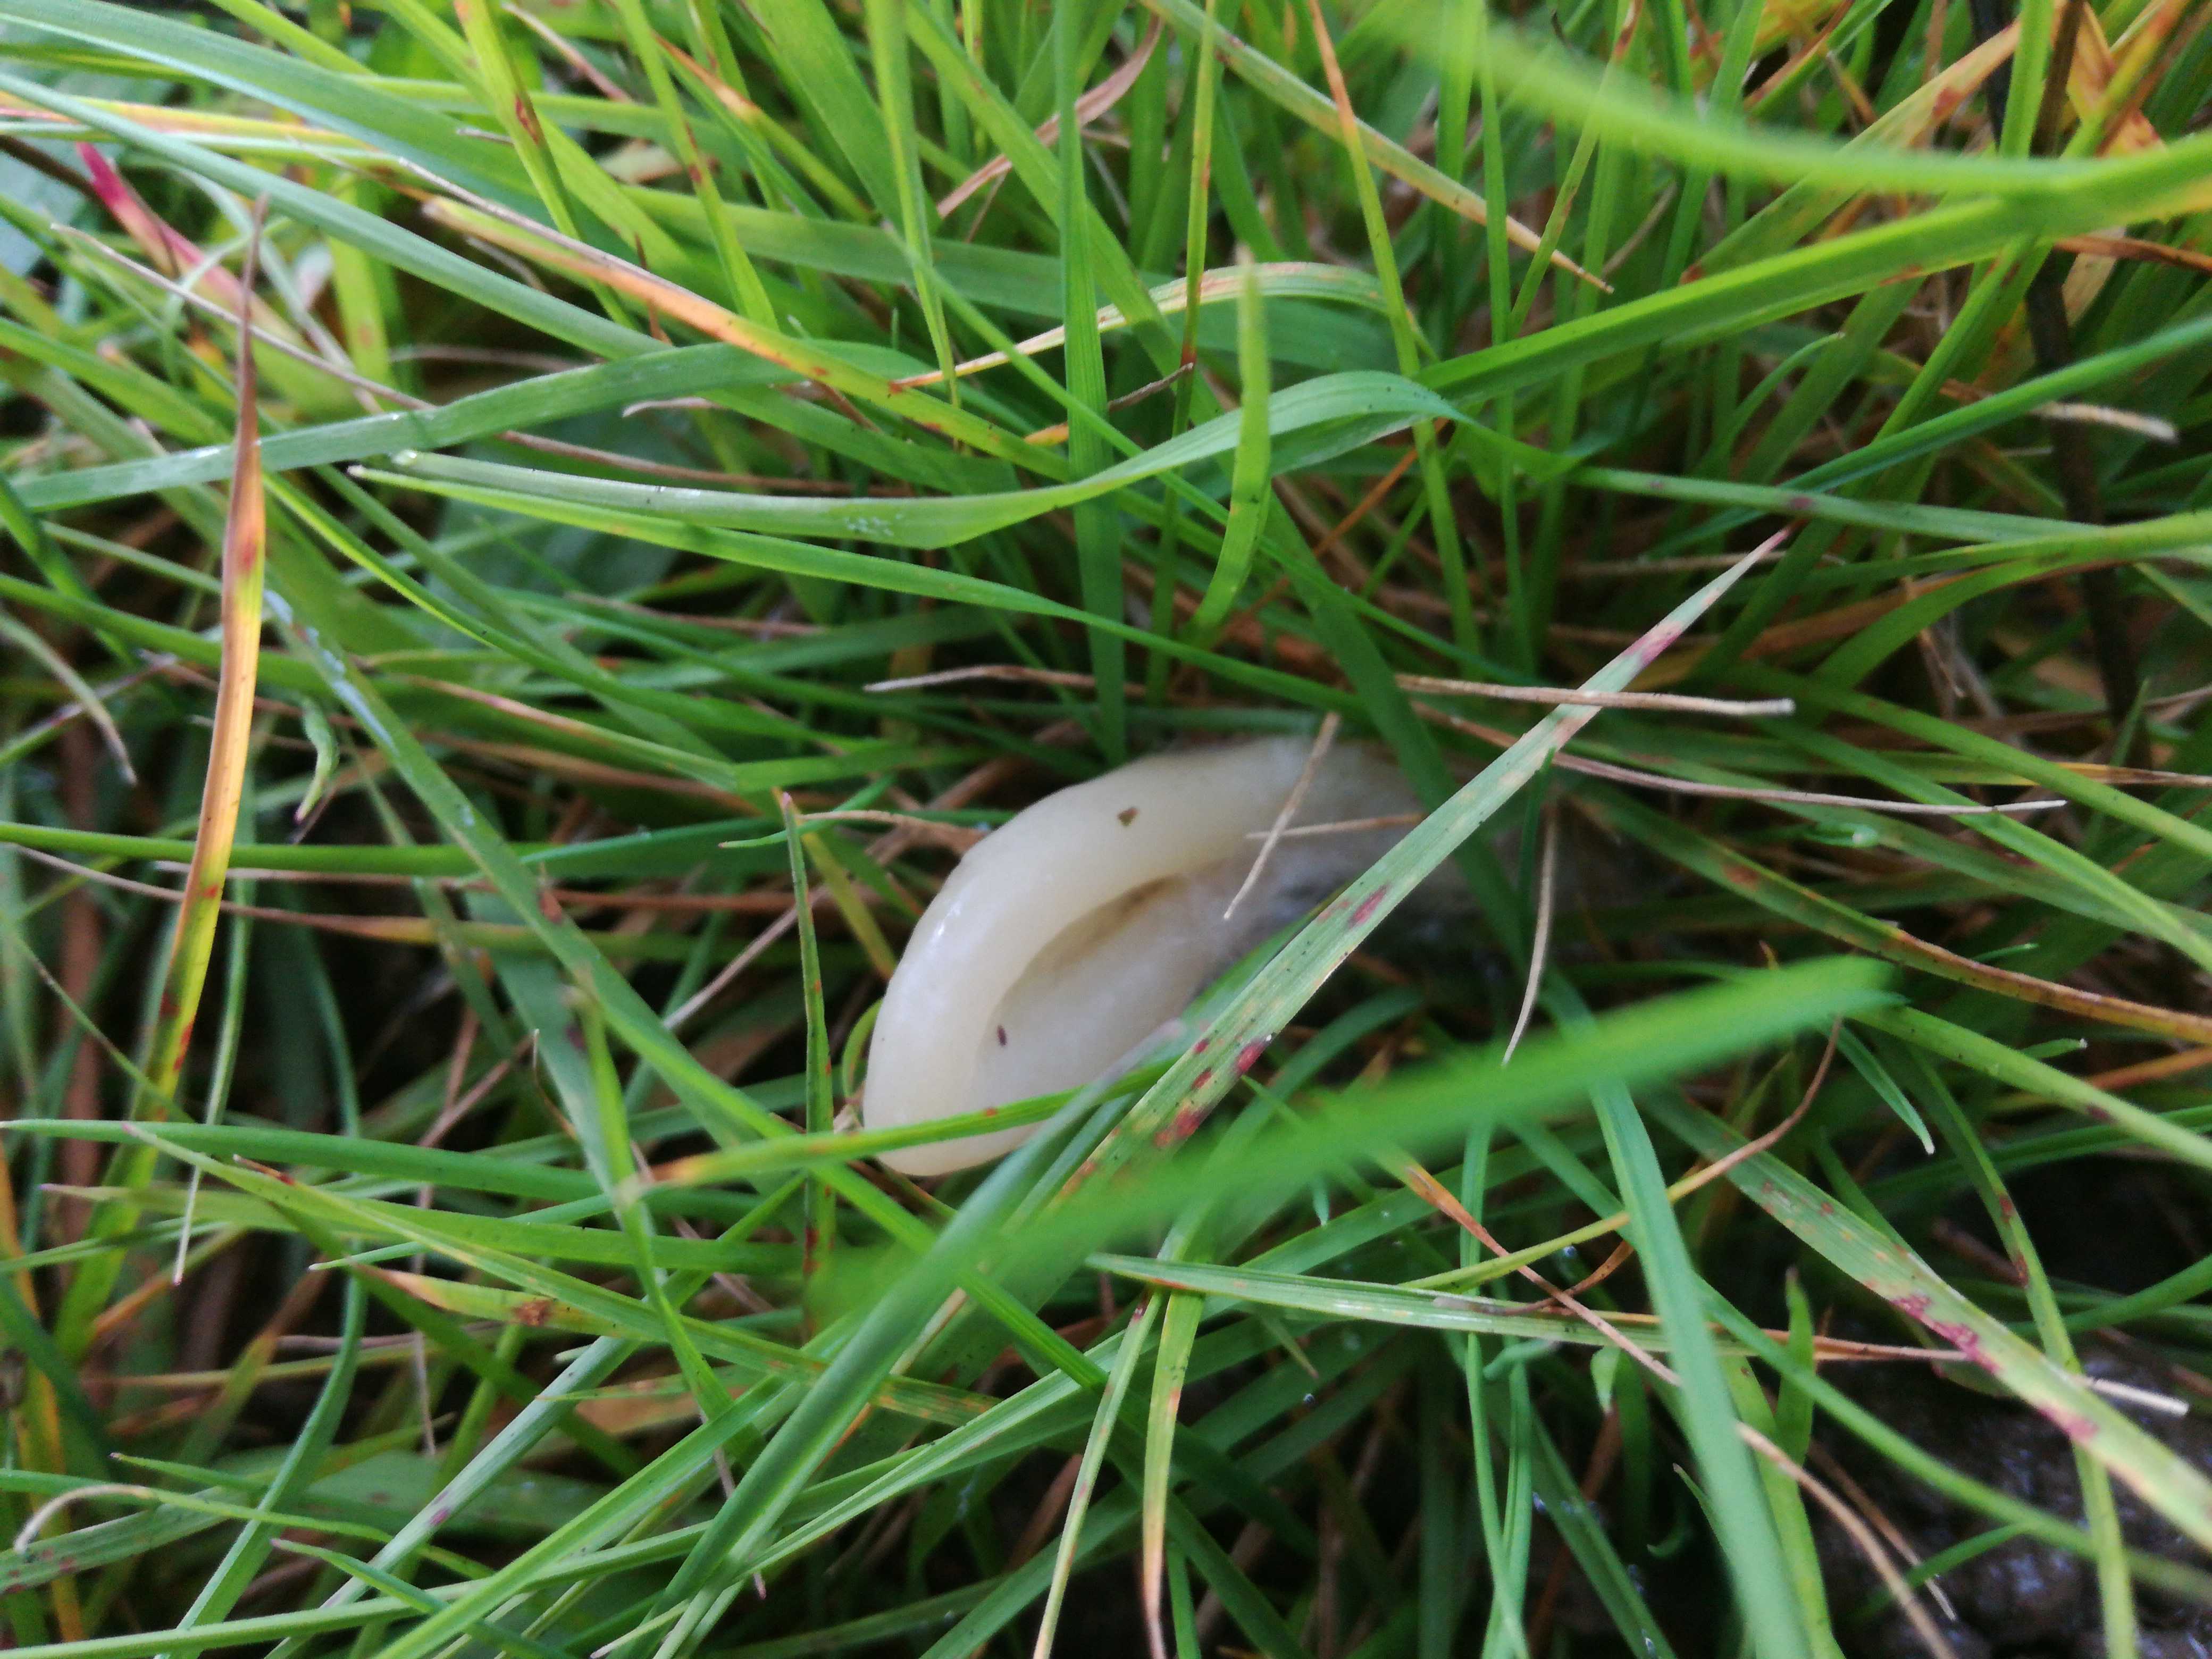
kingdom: Fungi
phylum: Basidiomycota
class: Agaricomycetes
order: Agaricales
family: Clavariaceae
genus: Clavaria
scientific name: Clavaria tenuipes
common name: isabellafarvet køllesvamp
